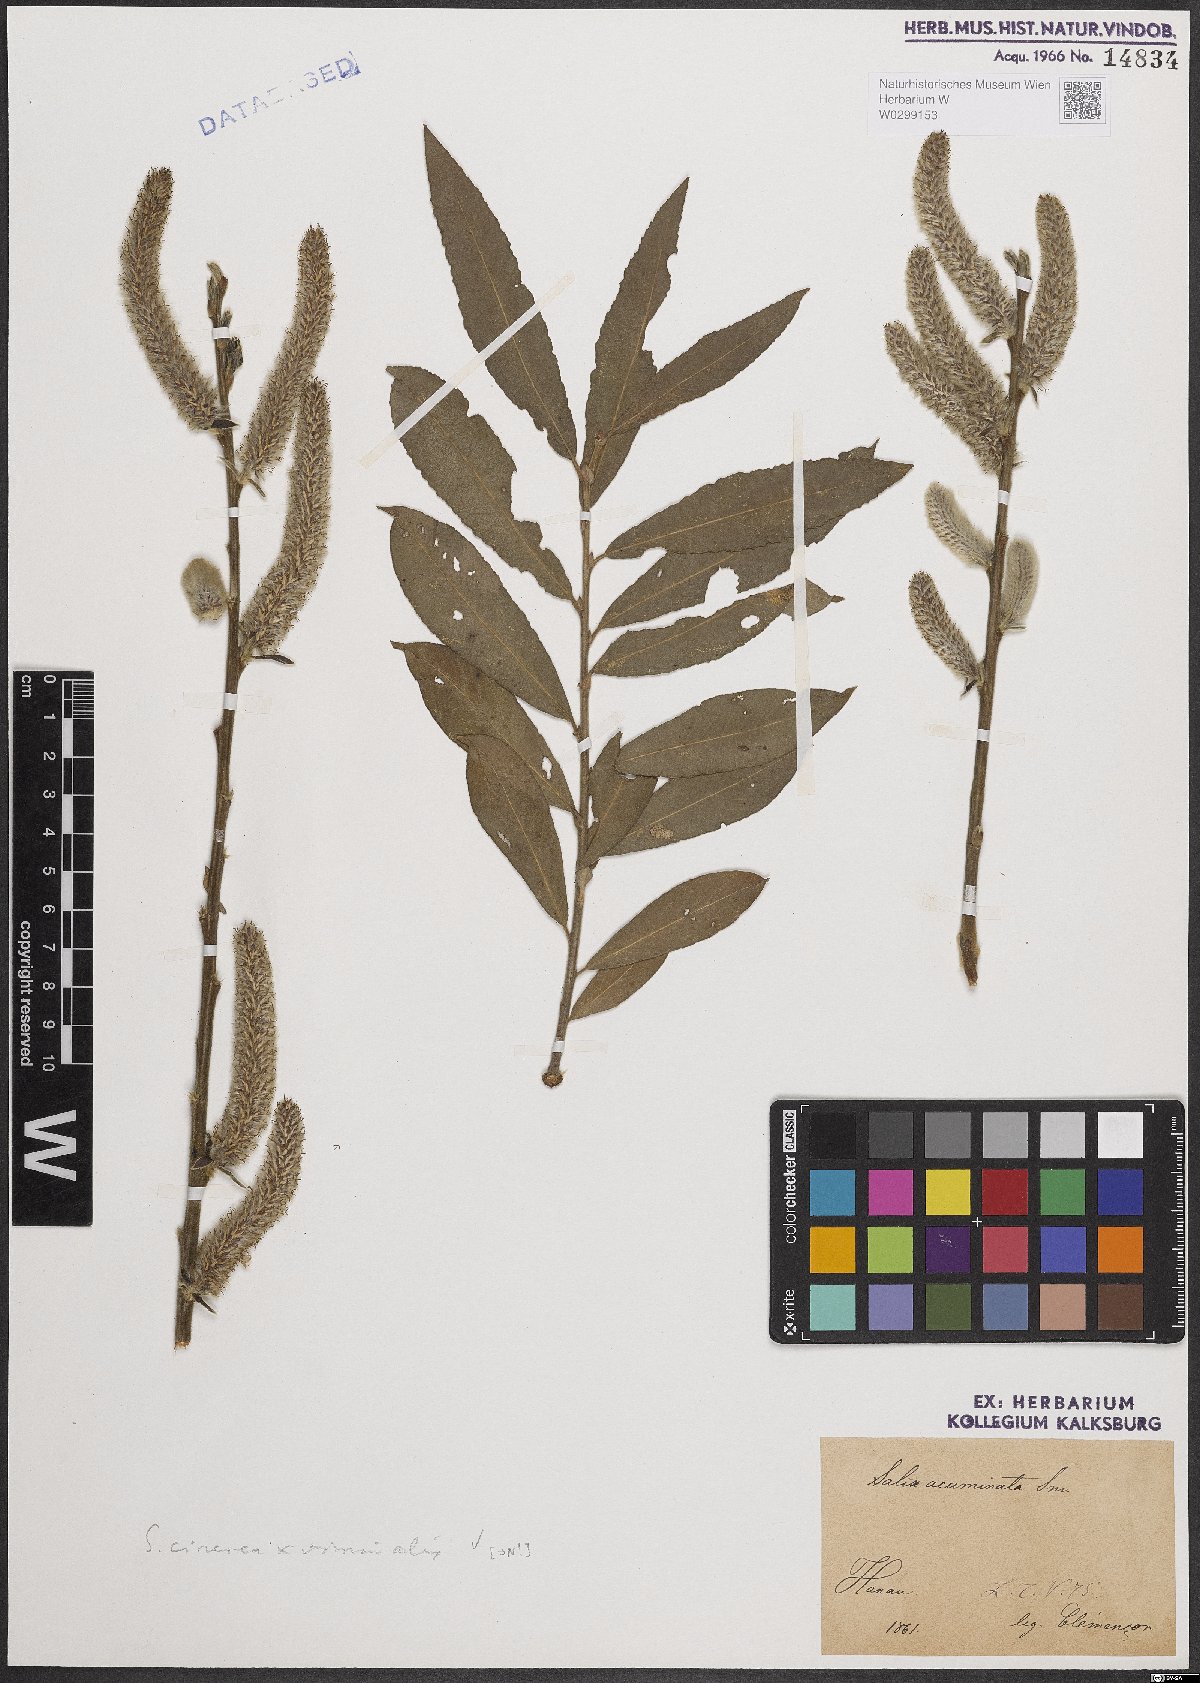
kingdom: Plantae
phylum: Tracheophyta
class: Magnoliopsida
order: Malpighiales
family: Salicaceae
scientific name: Salicaceae
